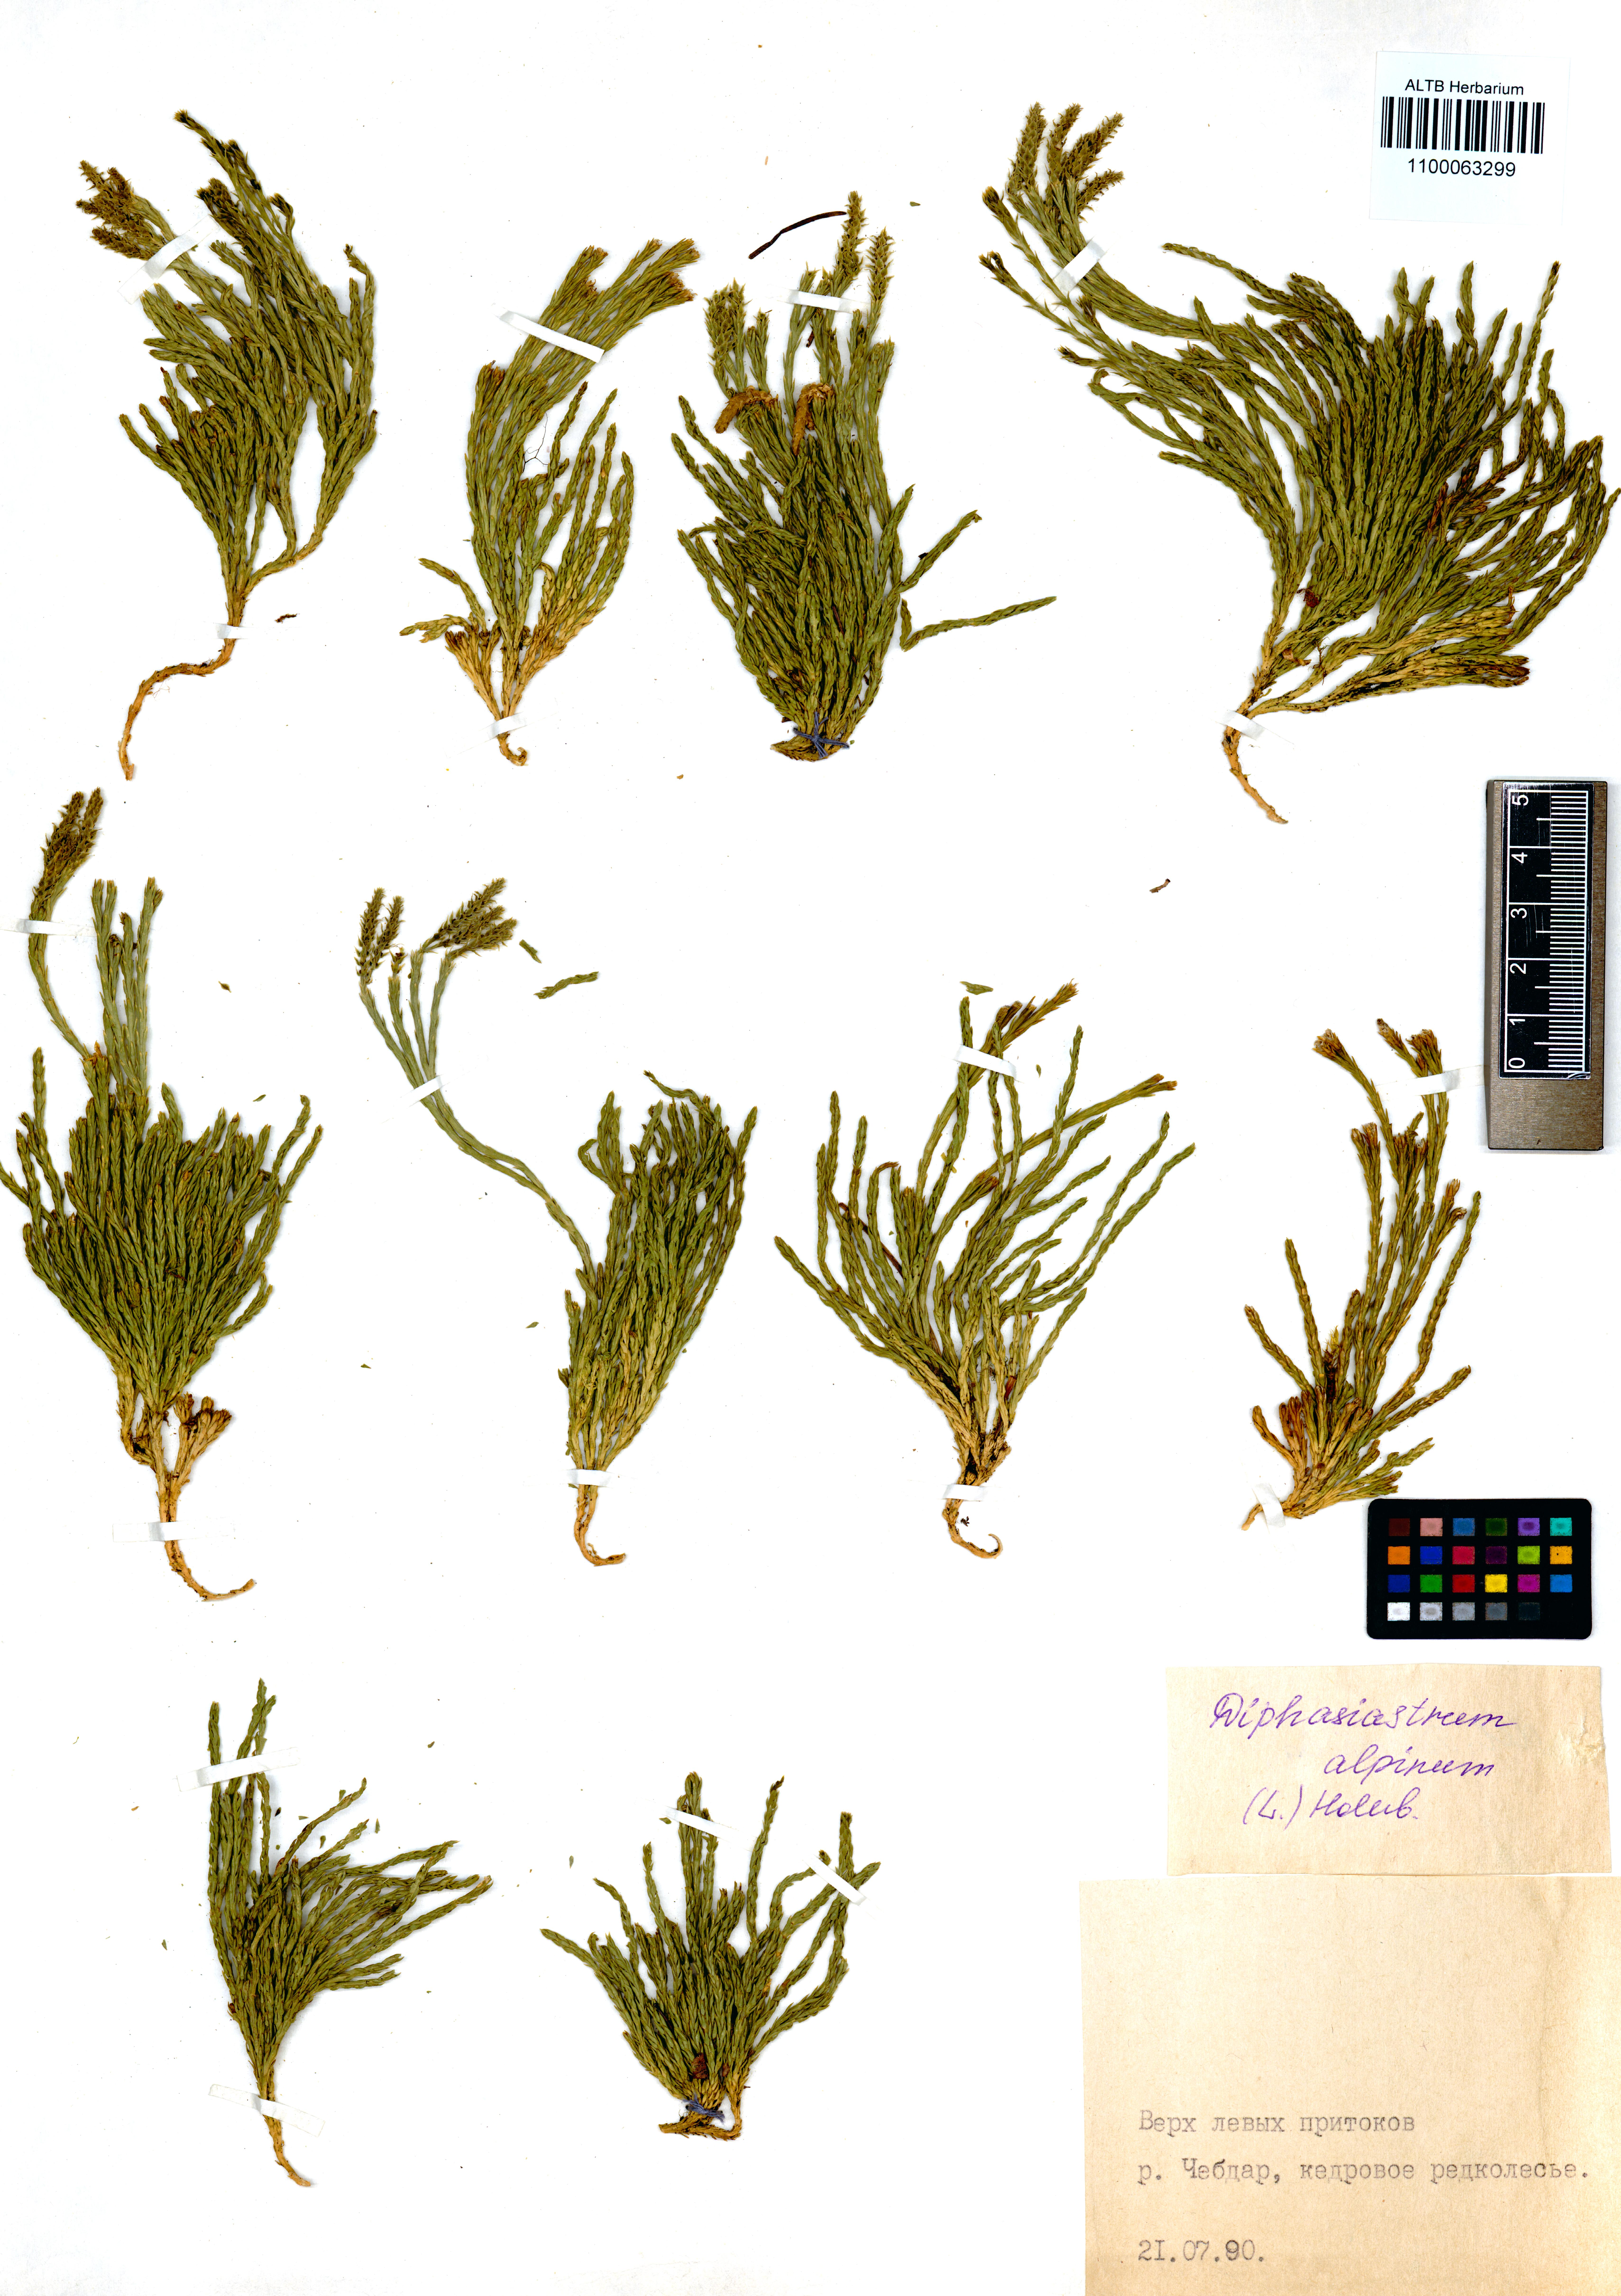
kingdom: Plantae
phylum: Tracheophyta
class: Lycopodiopsida
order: Lycopodiales
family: Lycopodiaceae
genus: Diphasiastrum
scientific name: Diphasiastrum alpinum
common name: Alpine clubmoss
